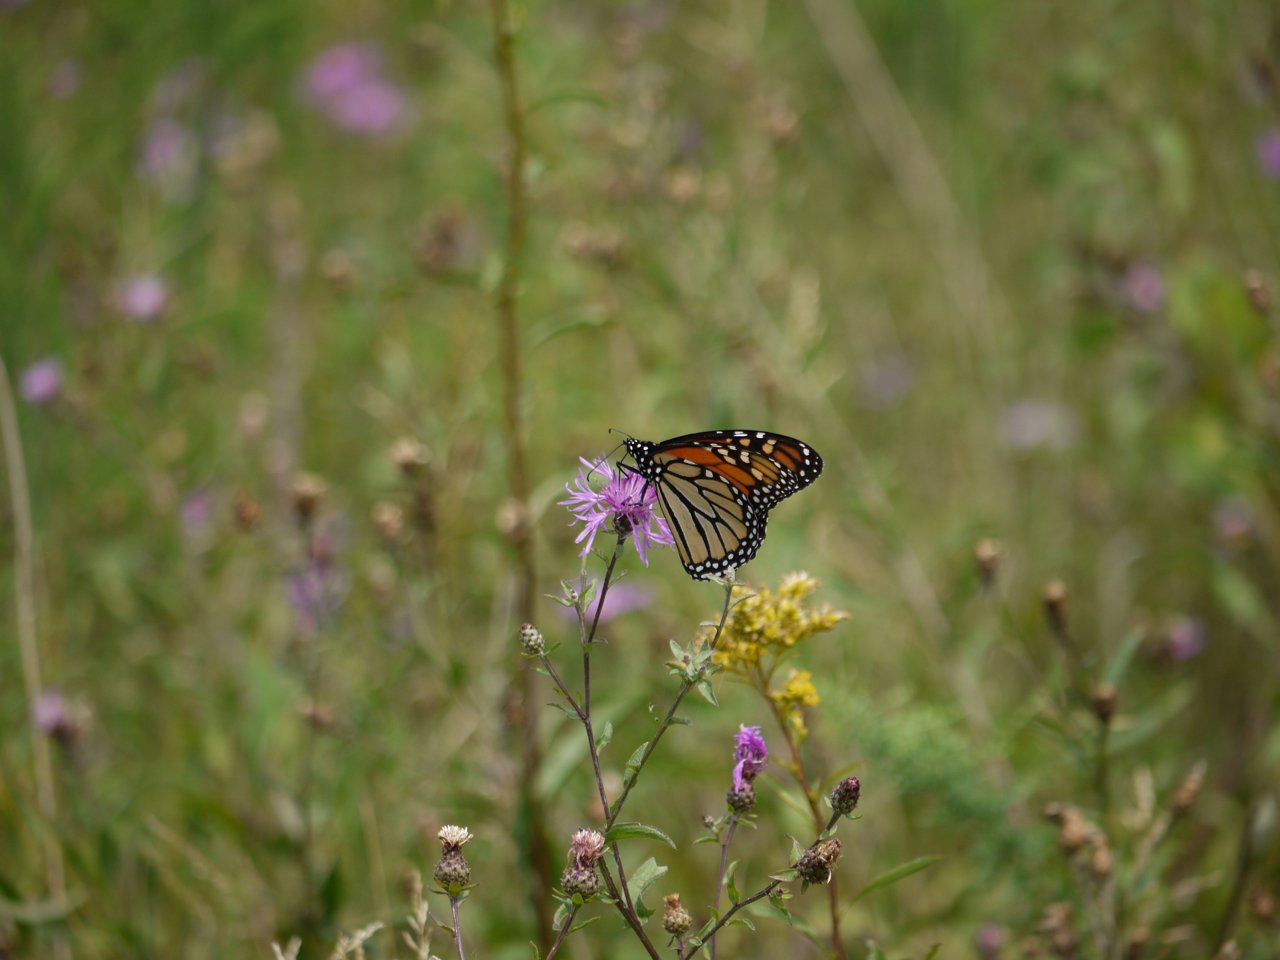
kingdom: Animalia
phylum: Arthropoda
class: Insecta
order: Lepidoptera
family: Nymphalidae
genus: Danaus
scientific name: Danaus plexippus
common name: Monarch
